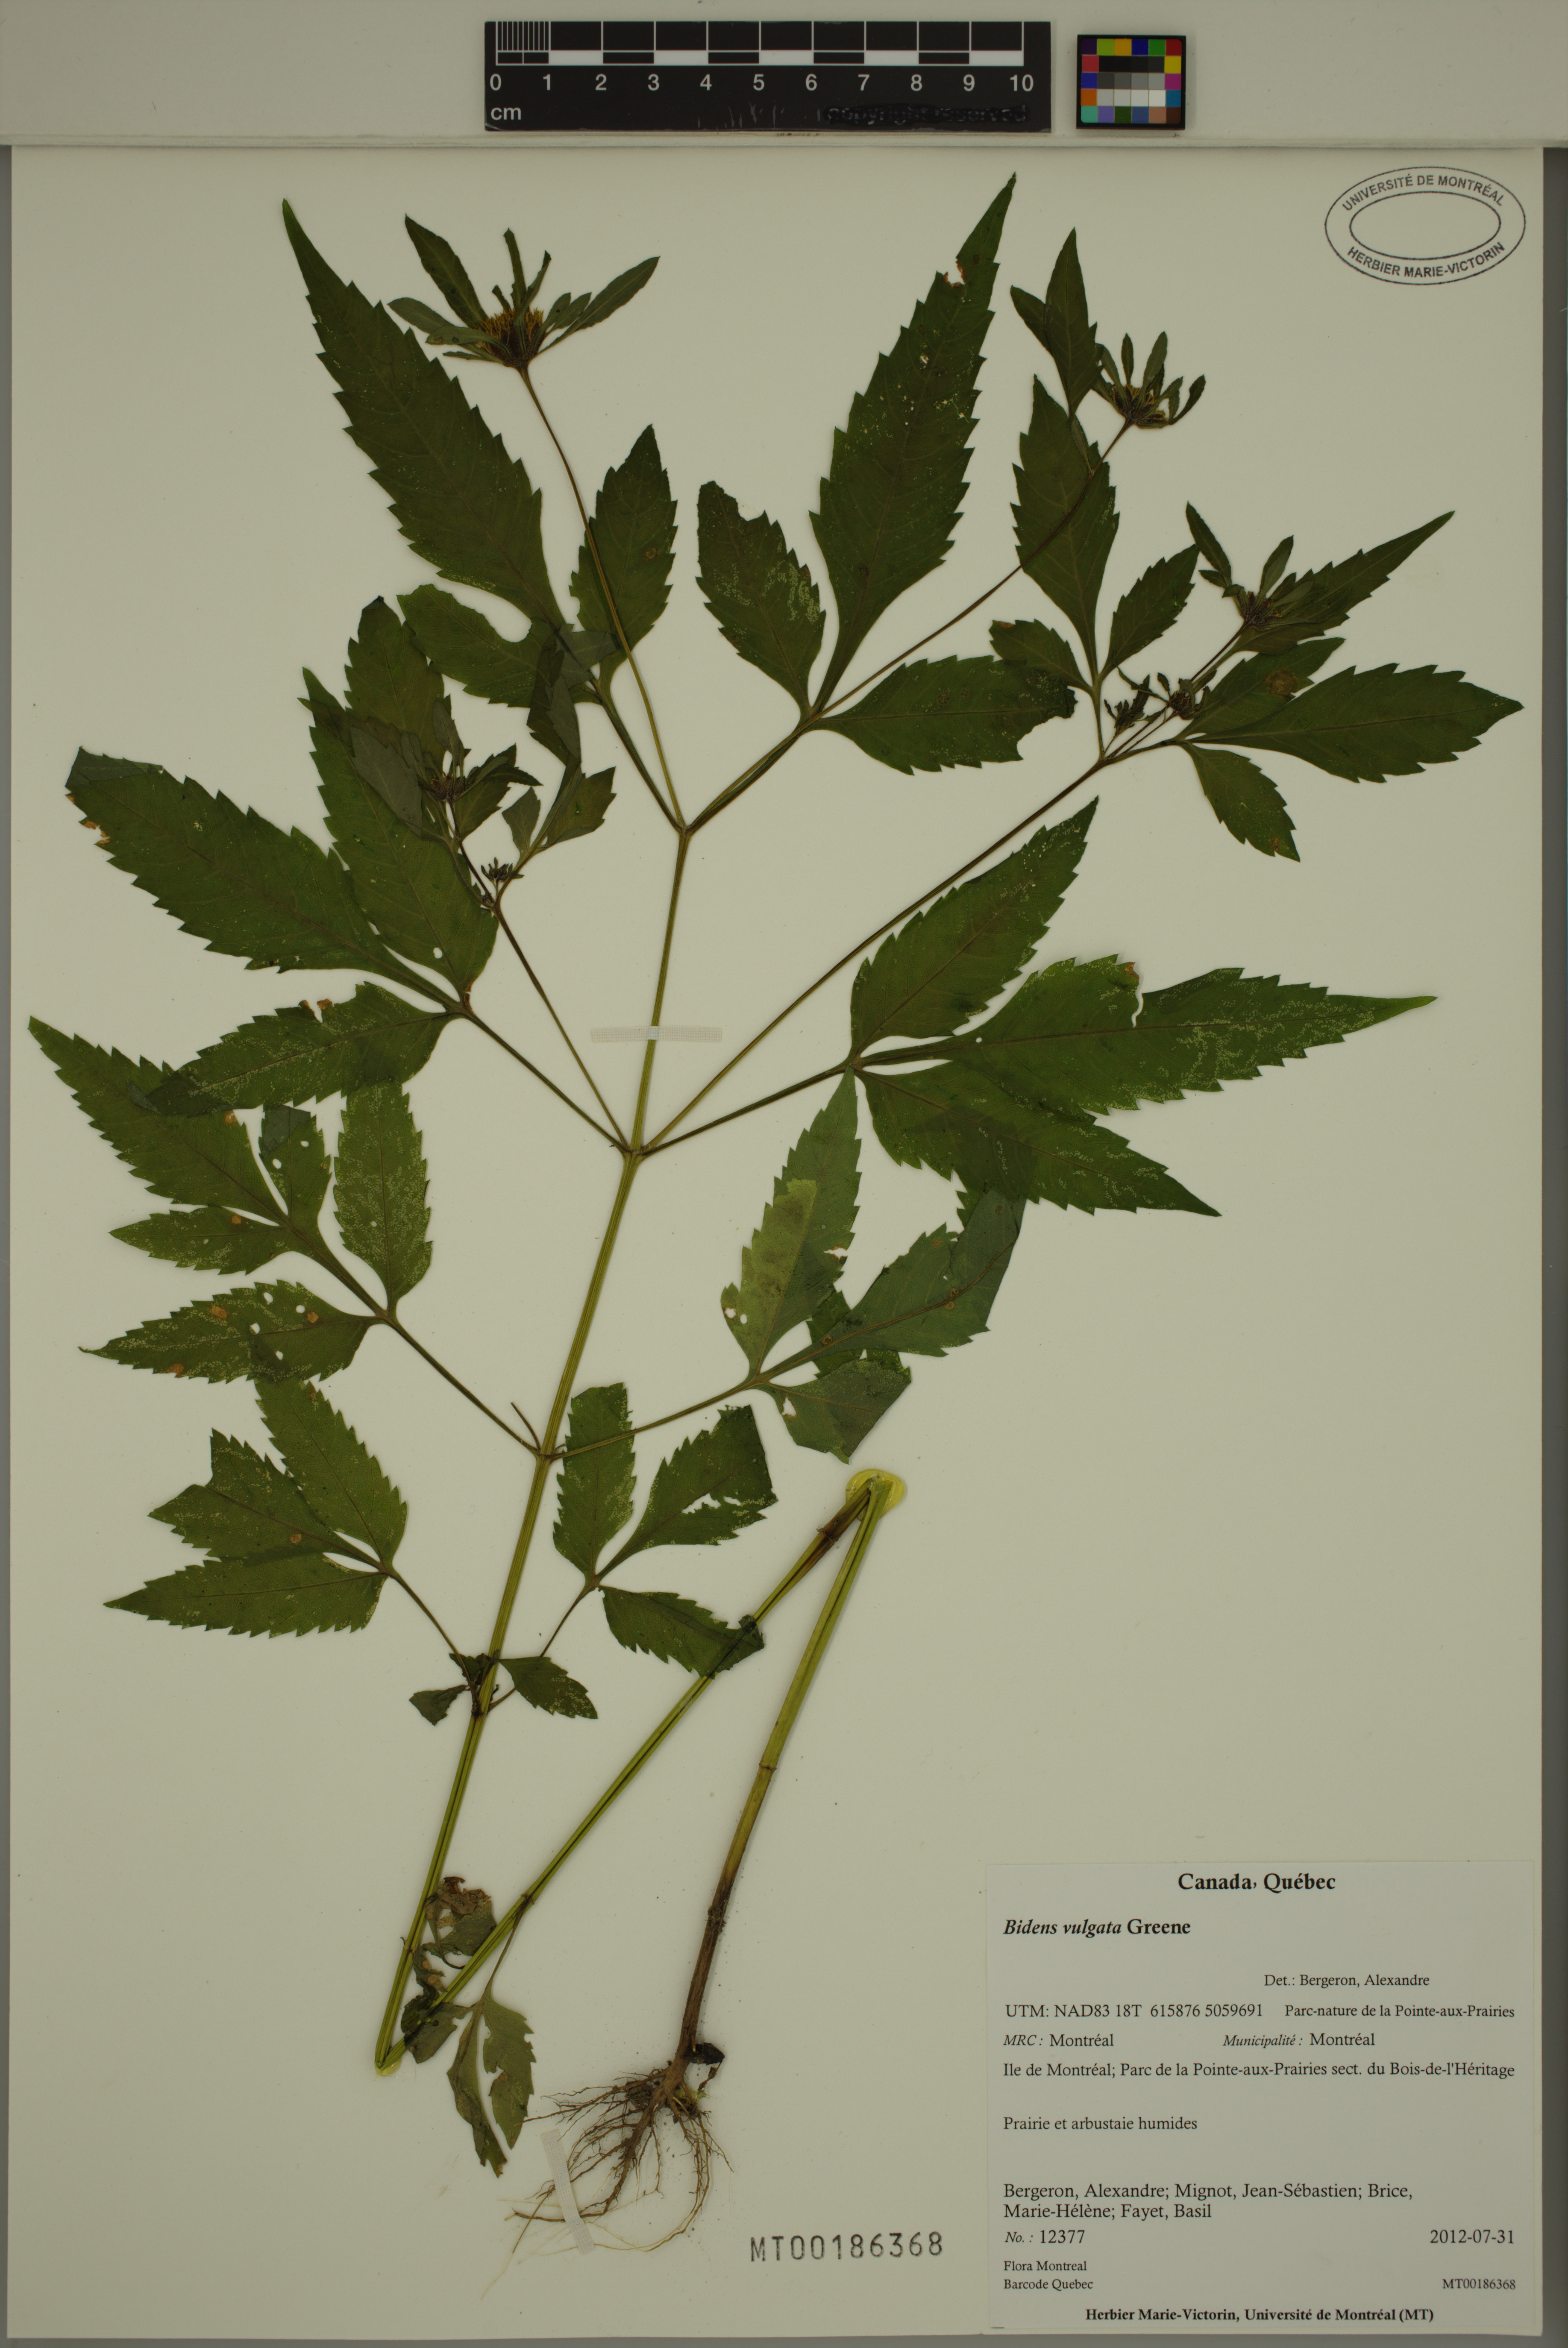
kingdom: Plantae
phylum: Tracheophyta
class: Magnoliopsida
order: Asterales
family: Asteraceae
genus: Bidens
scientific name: Bidens vulgata
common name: Tall beggarticks
